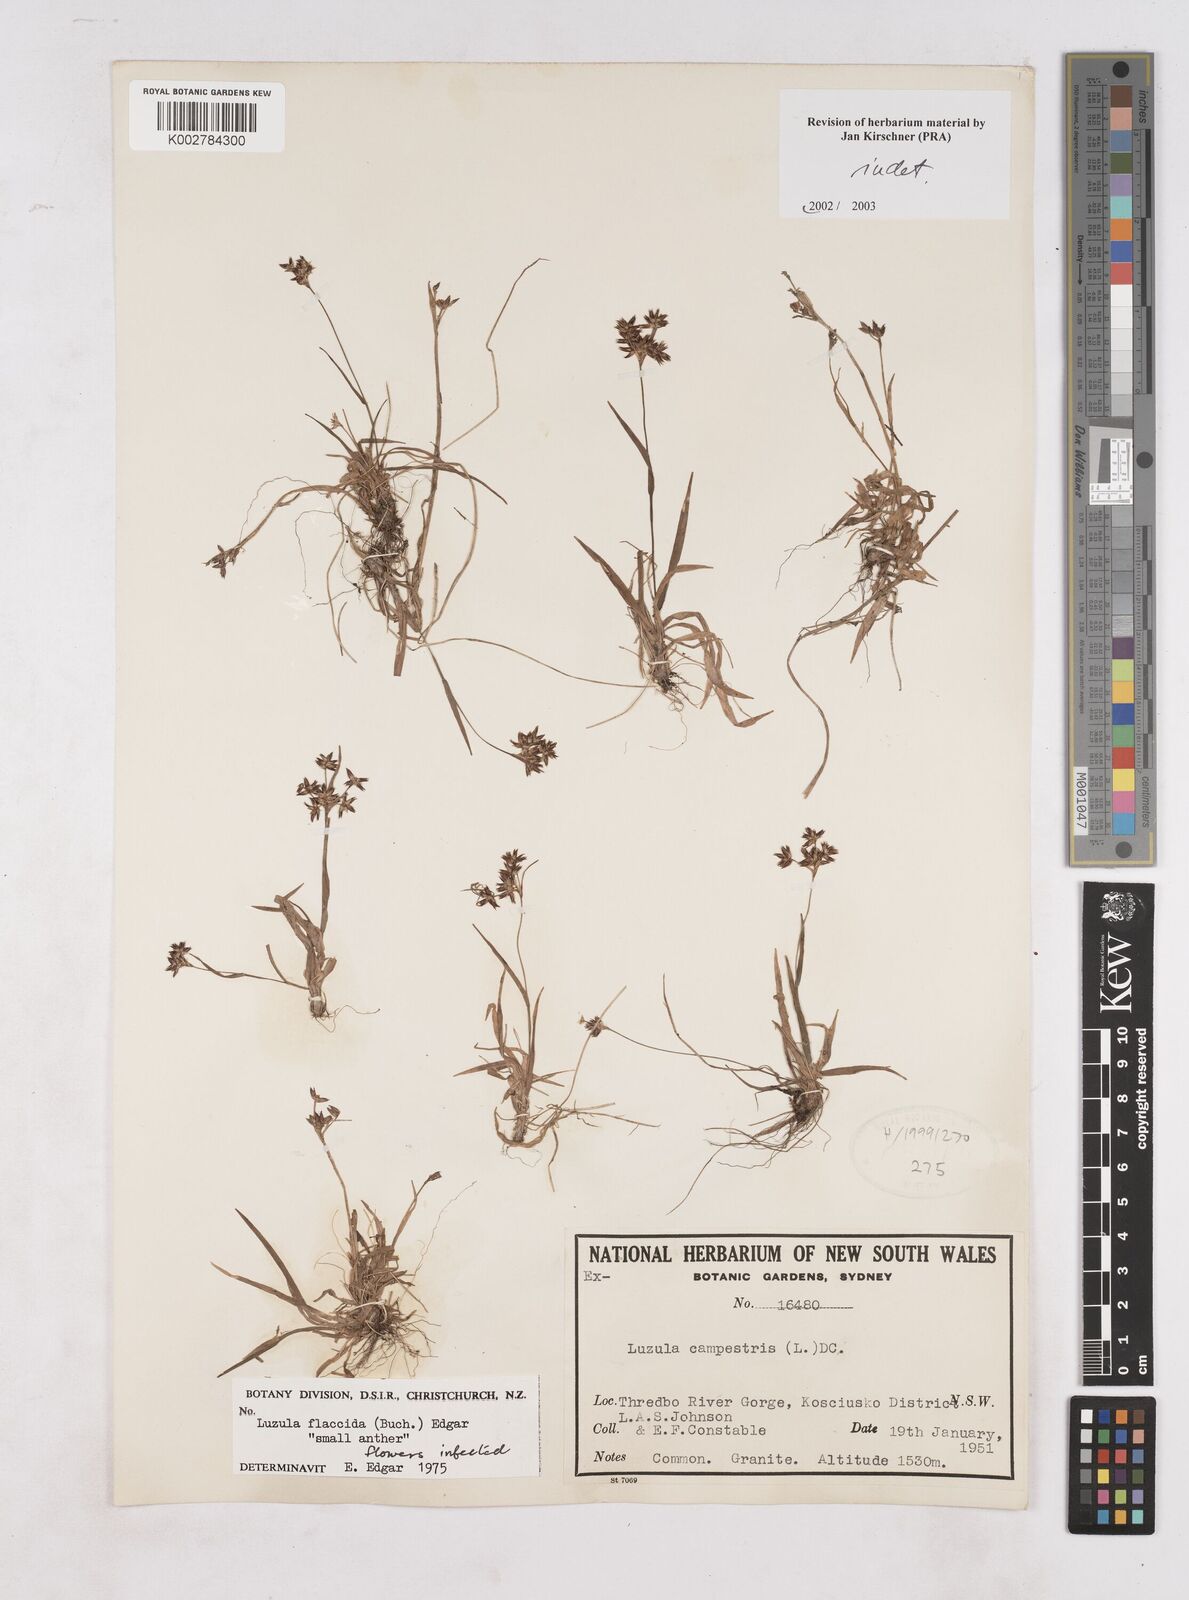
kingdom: Plantae
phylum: Tracheophyta
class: Liliopsida
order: Poales
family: Juncaceae
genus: Luzula
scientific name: Luzula
